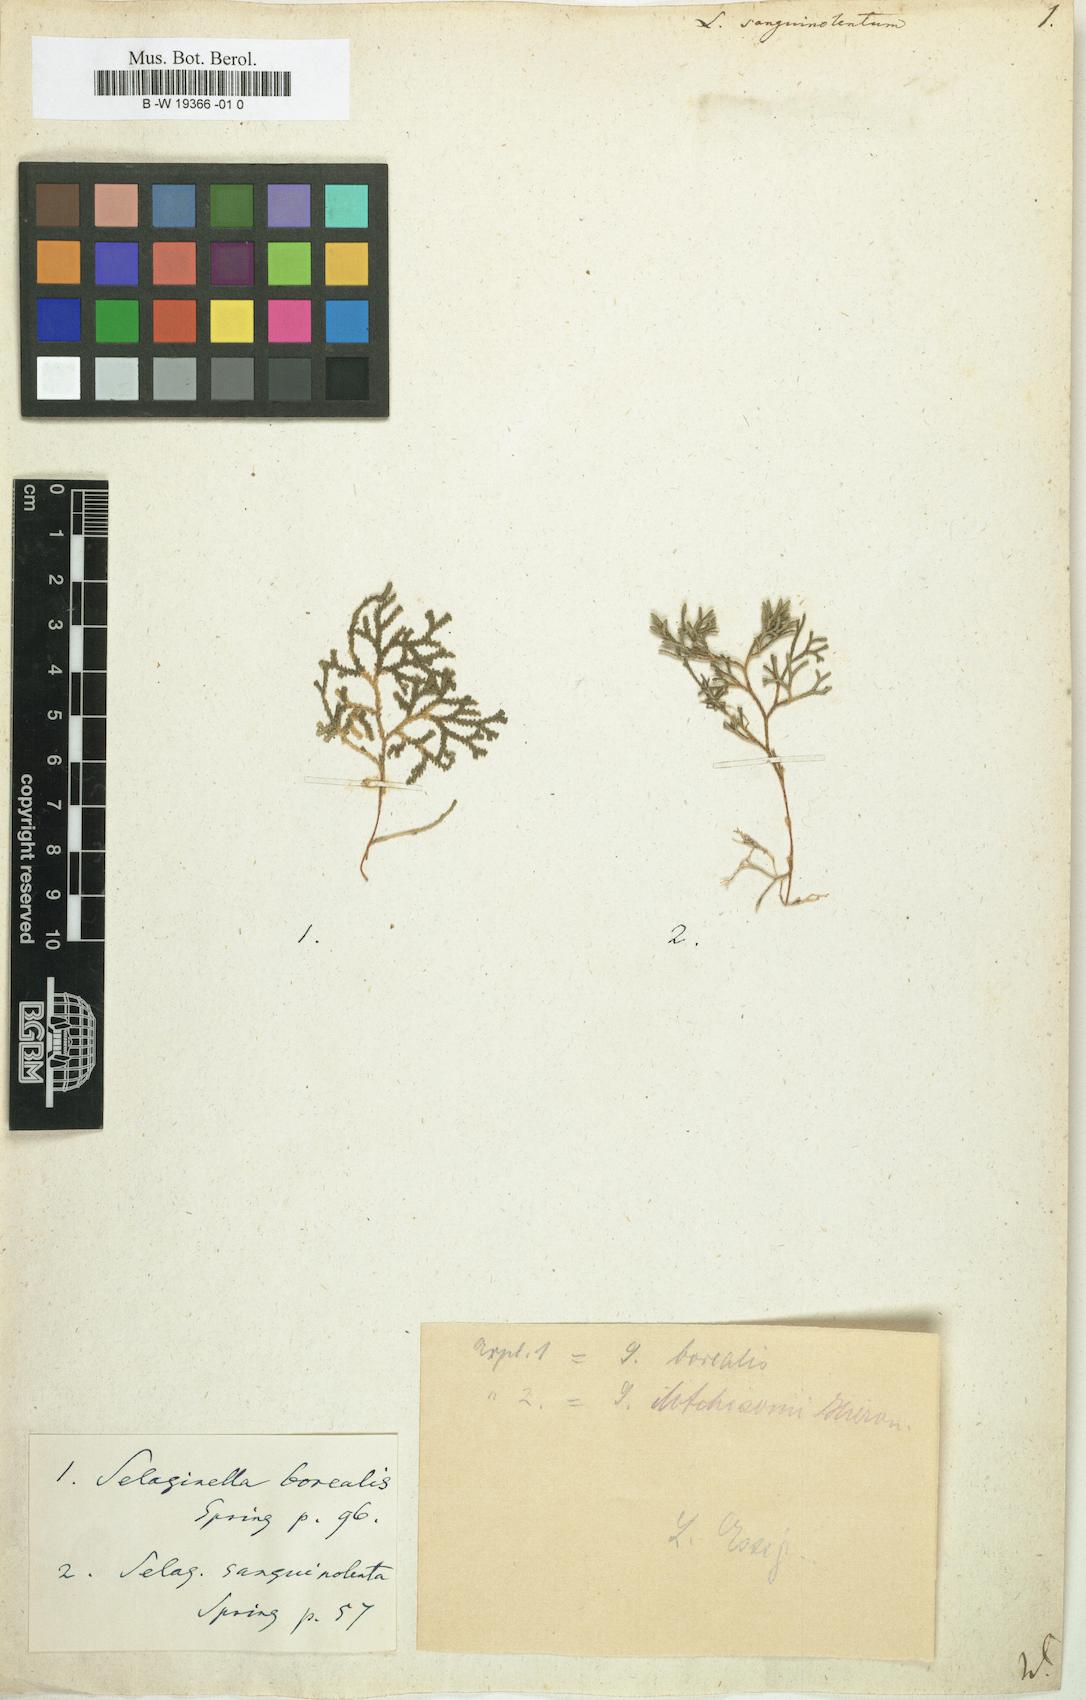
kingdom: Plantae
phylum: Tracheophyta
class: Lycopodiopsida
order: Selaginellales
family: Selaginellaceae
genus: Selaginella
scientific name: Selaginella
